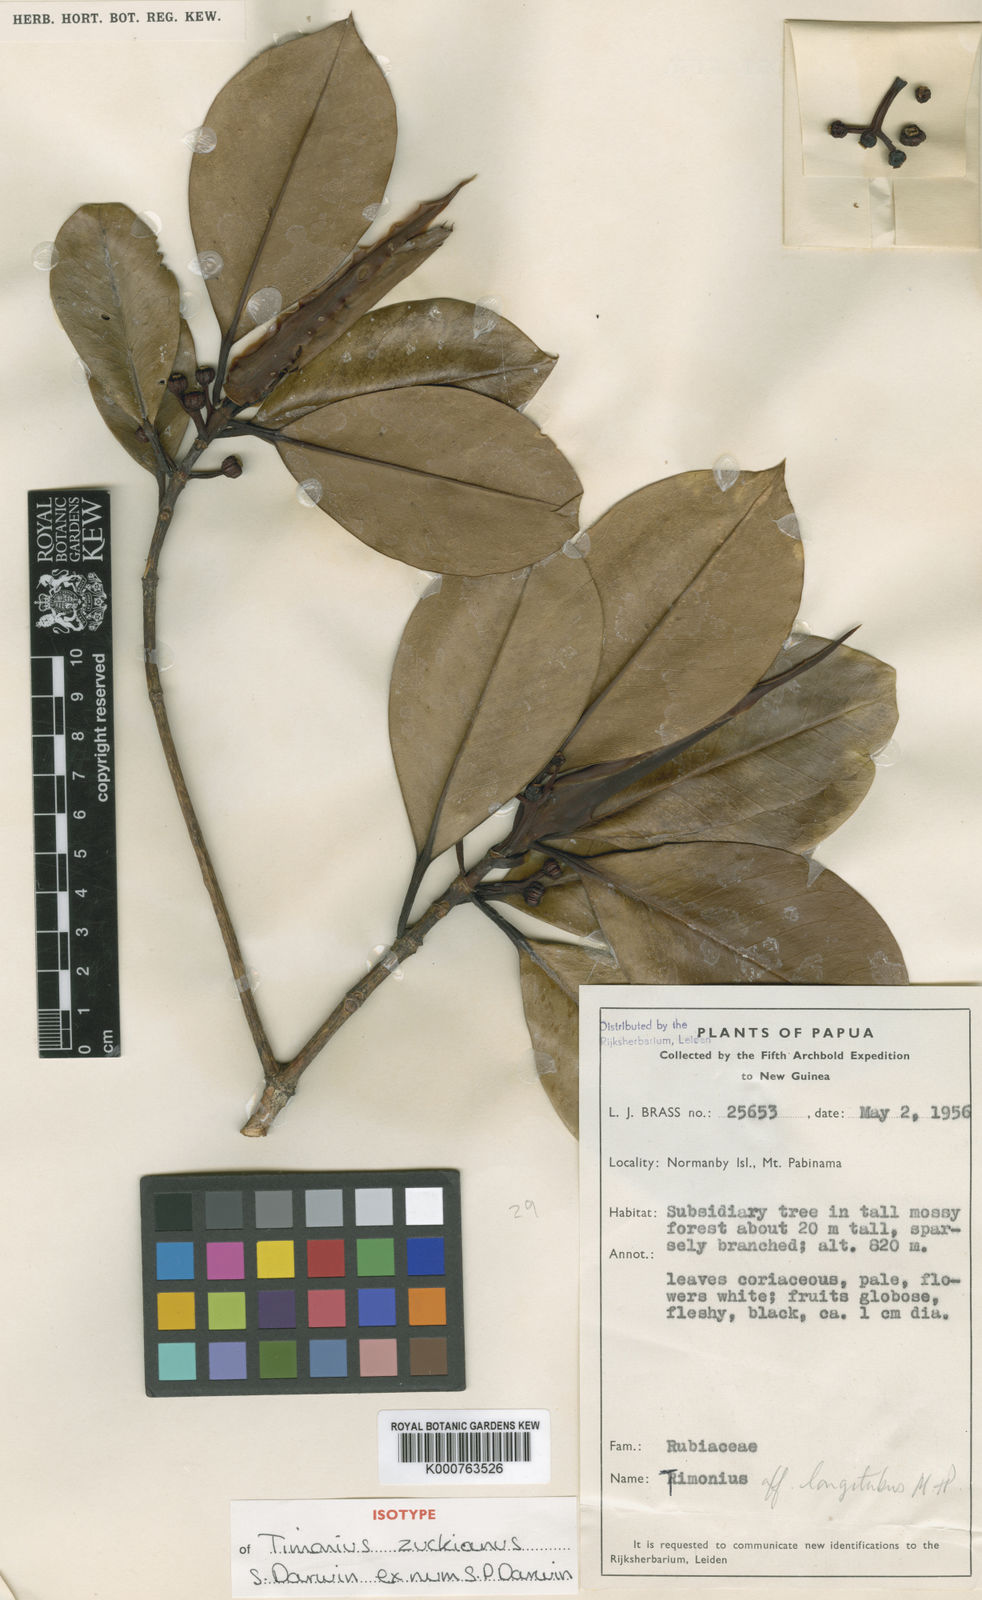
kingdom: Plantae
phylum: Tracheophyta
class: Magnoliopsida
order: Gentianales
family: Rubiaceae
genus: Timonius
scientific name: Timonius zuckianus
